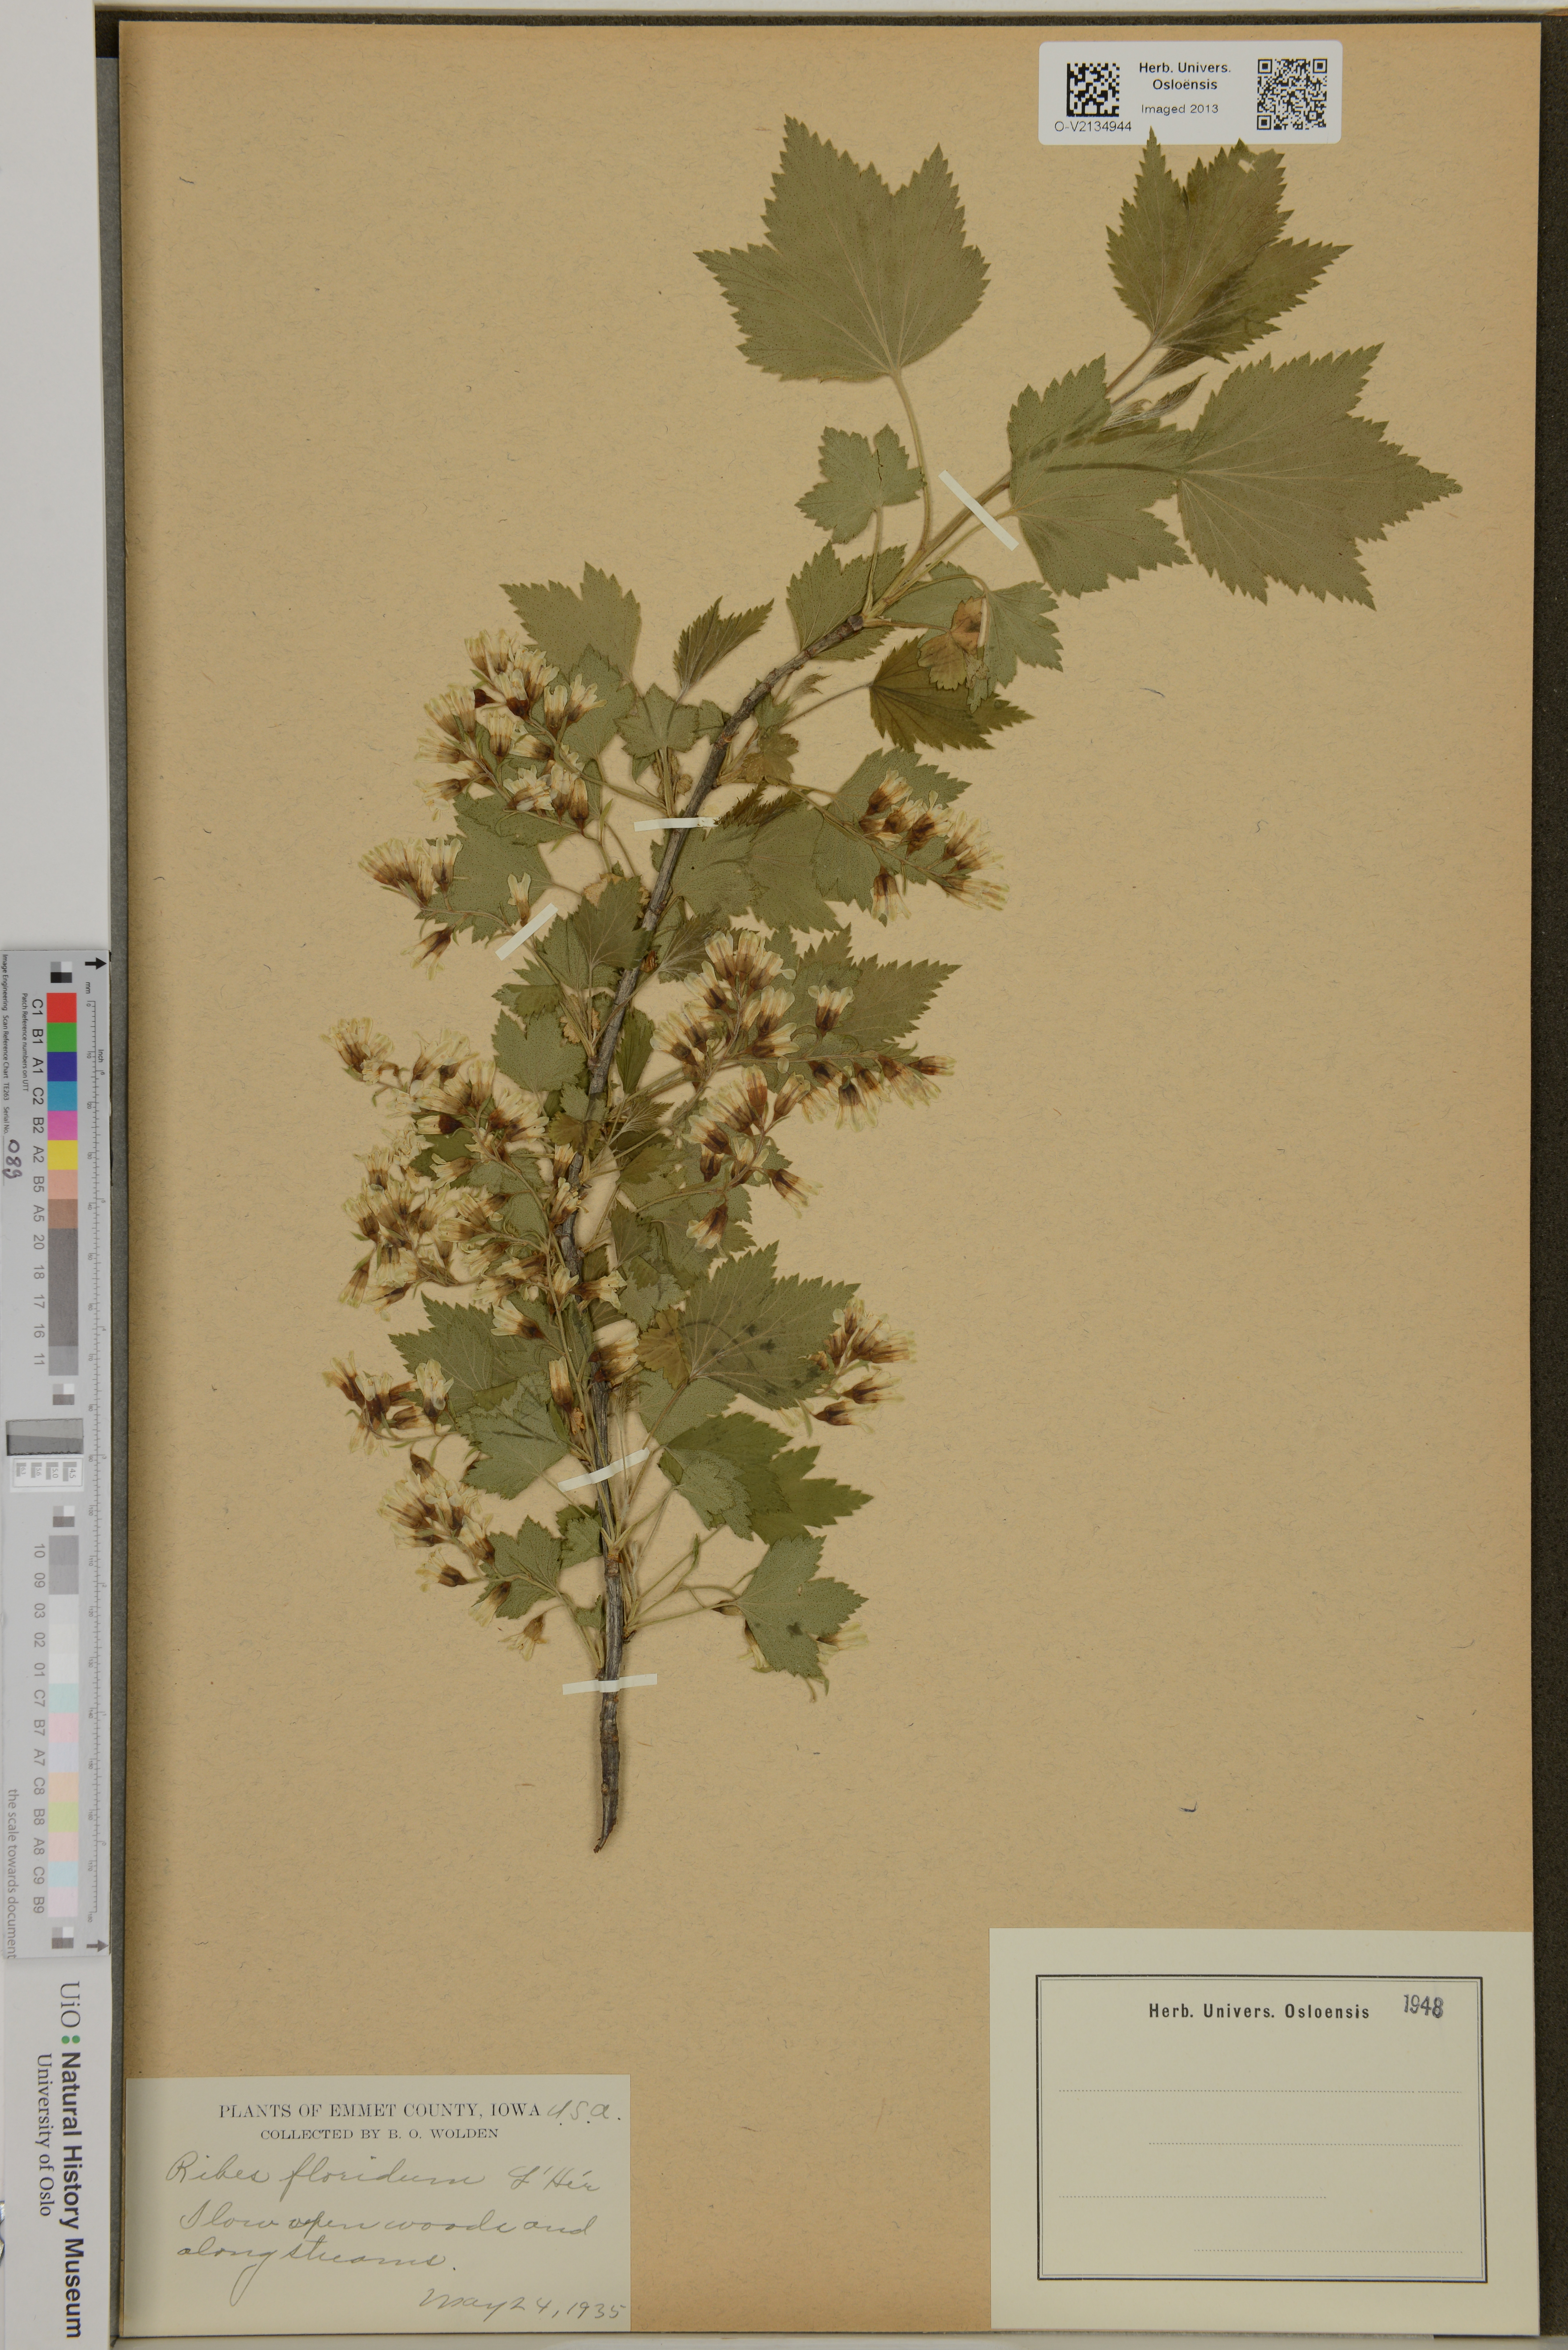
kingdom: Plantae
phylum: Tracheophyta
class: Magnoliopsida
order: Saxifragales
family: Grossulariaceae
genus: Ribes
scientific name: Ribes
